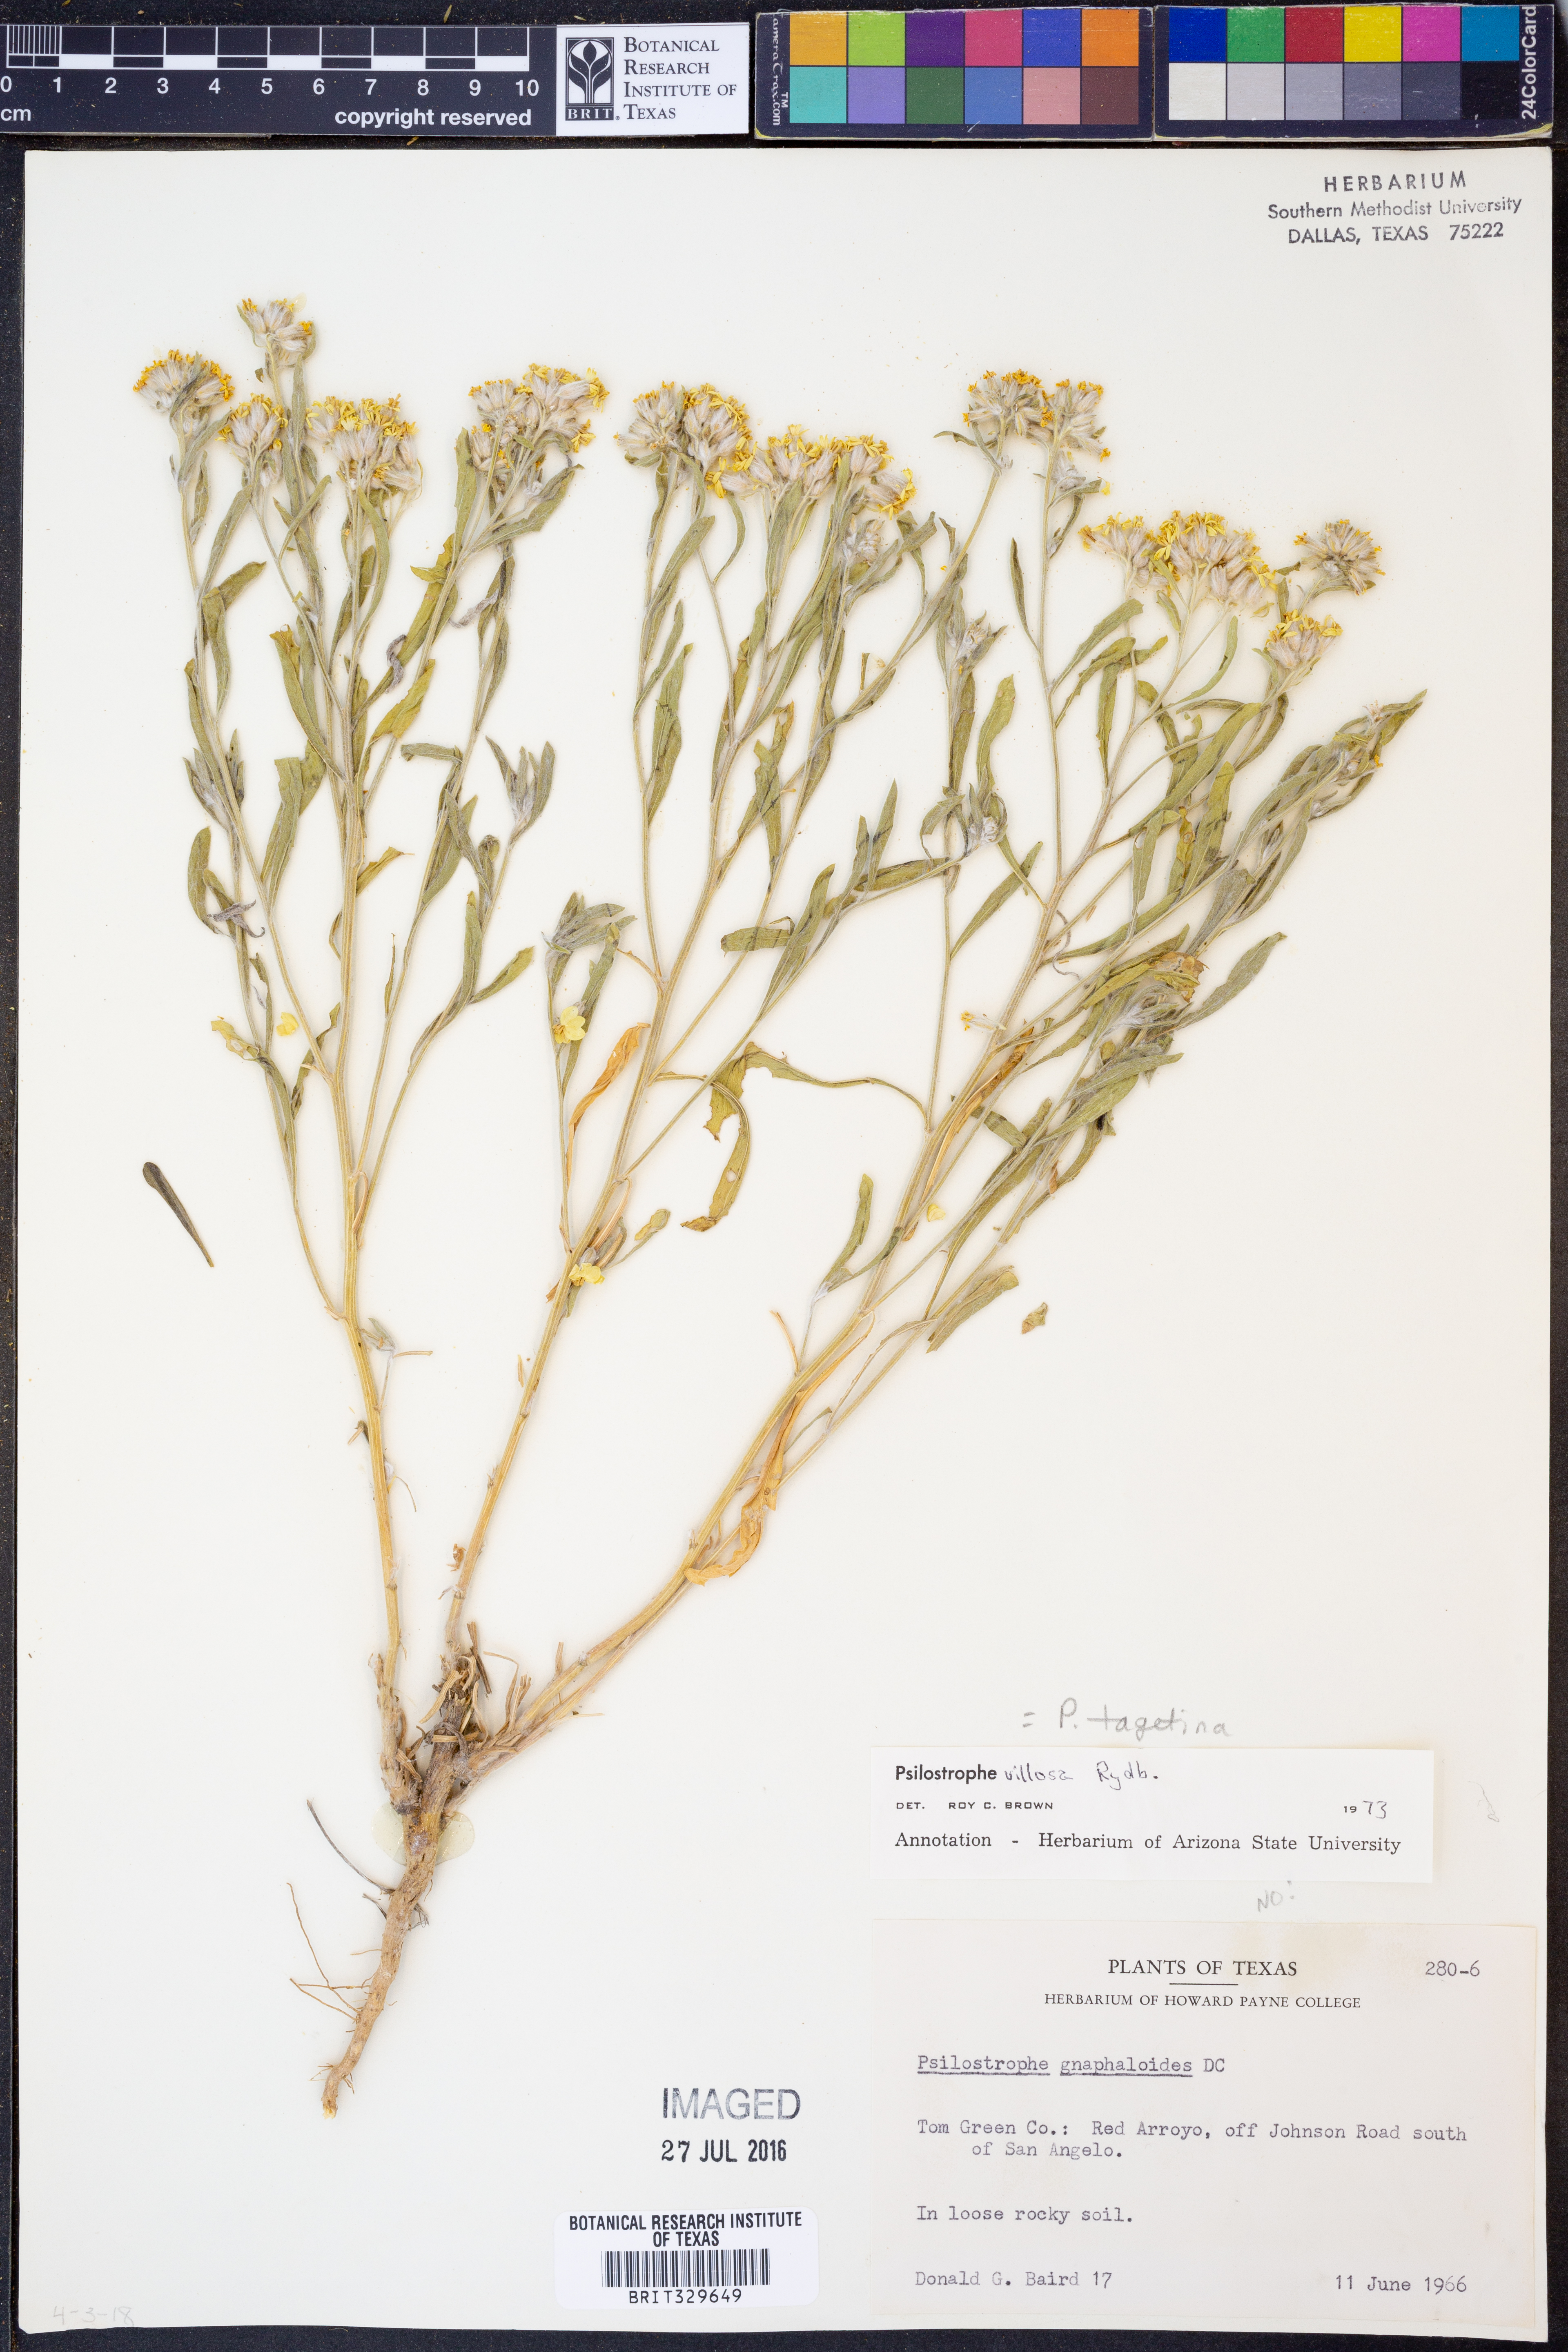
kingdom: Plantae
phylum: Tracheophyta
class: Magnoliopsida
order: Asterales
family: Asteraceae
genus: Psilostrophe
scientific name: Psilostrophe tagetina
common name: Marigold paper-flower
